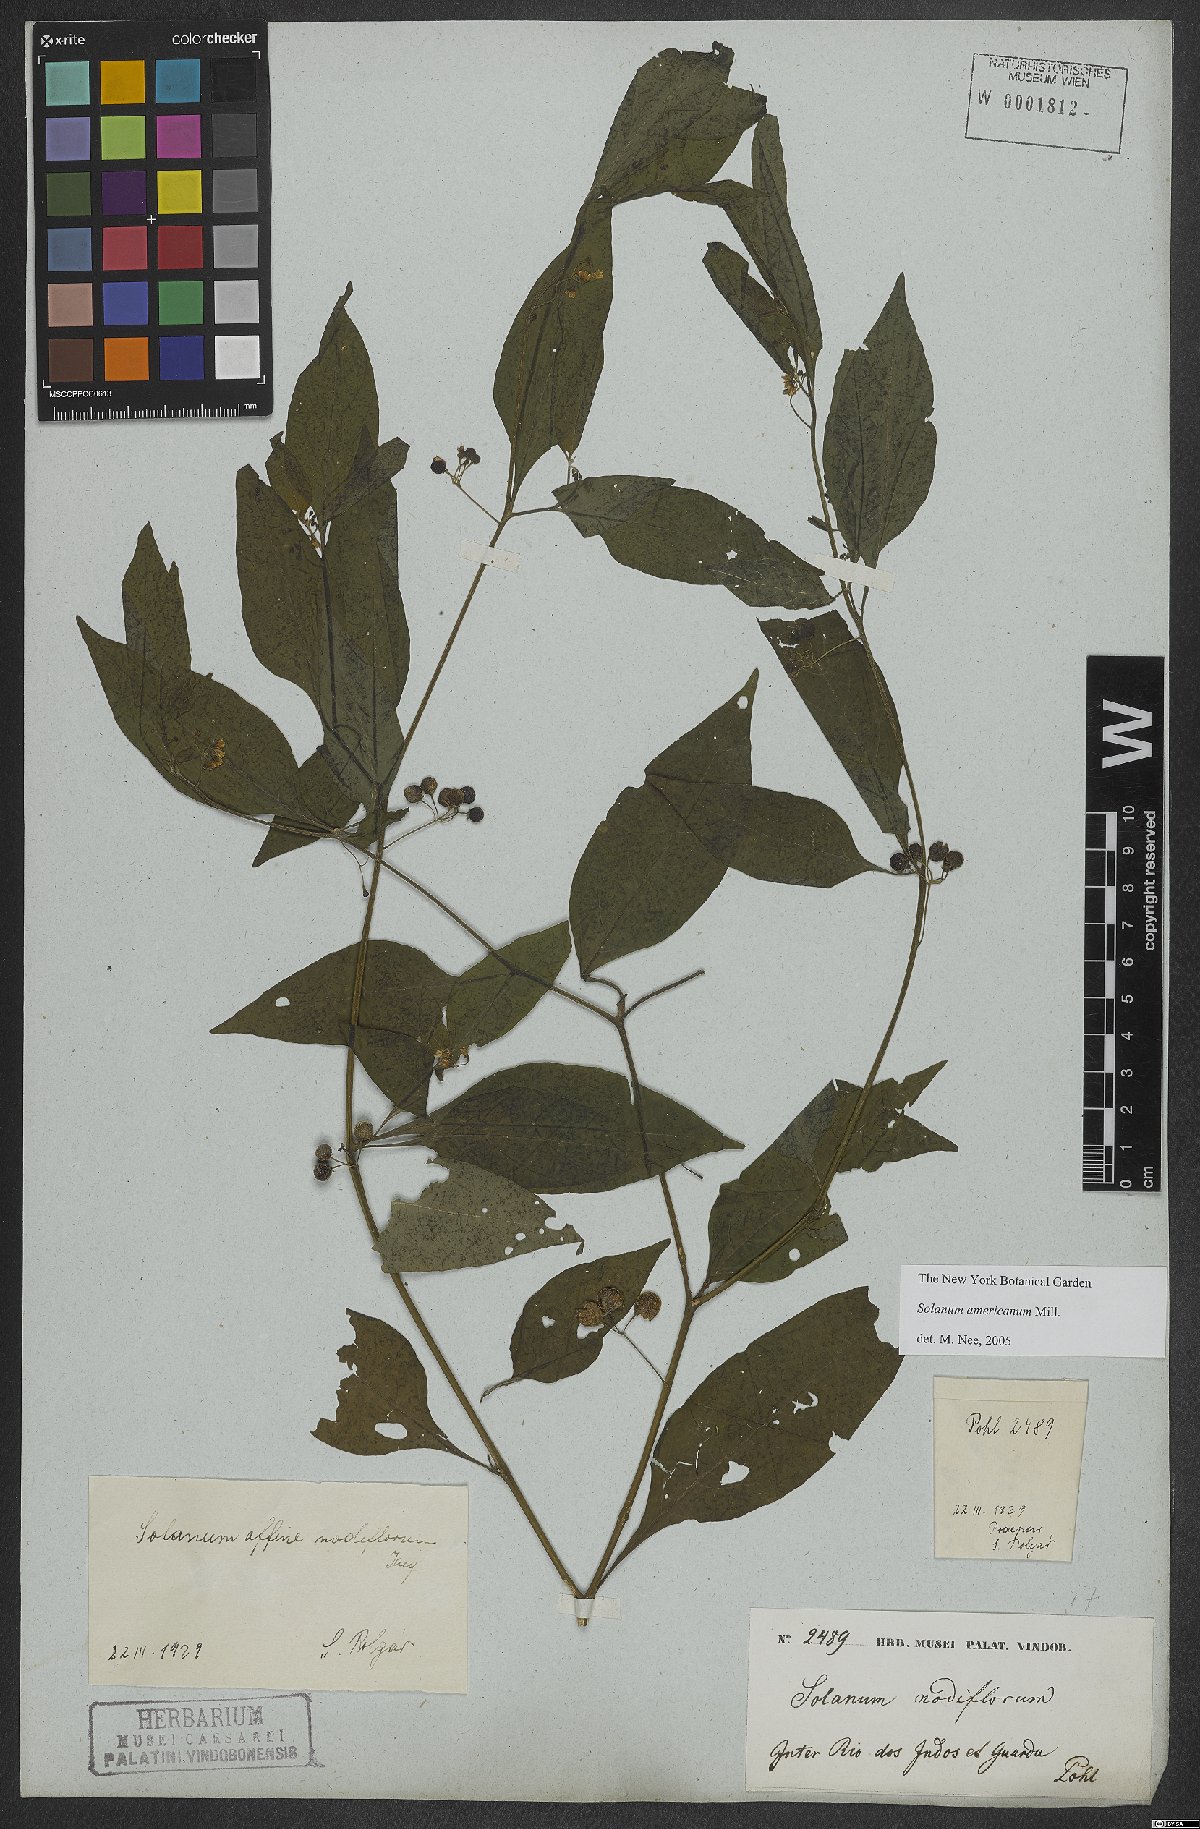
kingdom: Plantae
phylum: Tracheophyta
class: Magnoliopsida
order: Solanales
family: Solanaceae
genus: Solanum
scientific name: Solanum americanum
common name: American black nightshade
